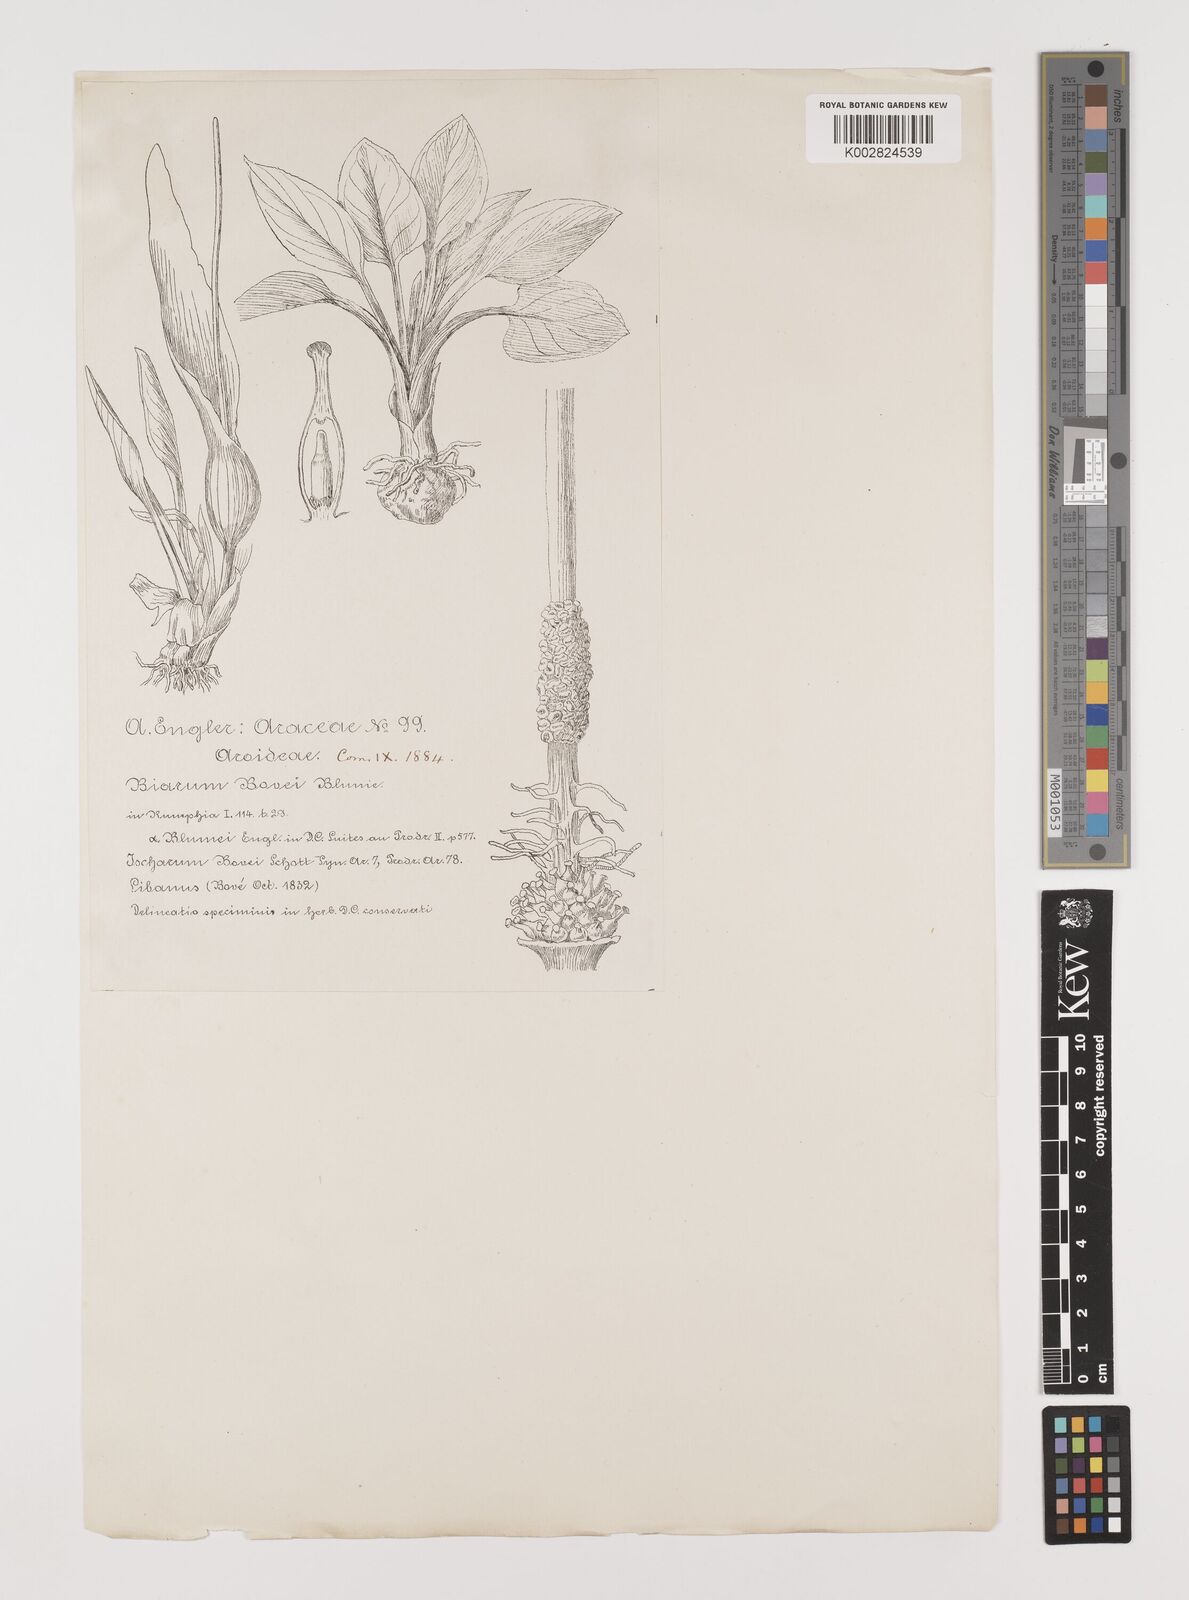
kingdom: Plantae
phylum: Tracheophyta
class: Liliopsida
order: Alismatales
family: Araceae
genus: Biarum
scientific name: Biarum bovei
